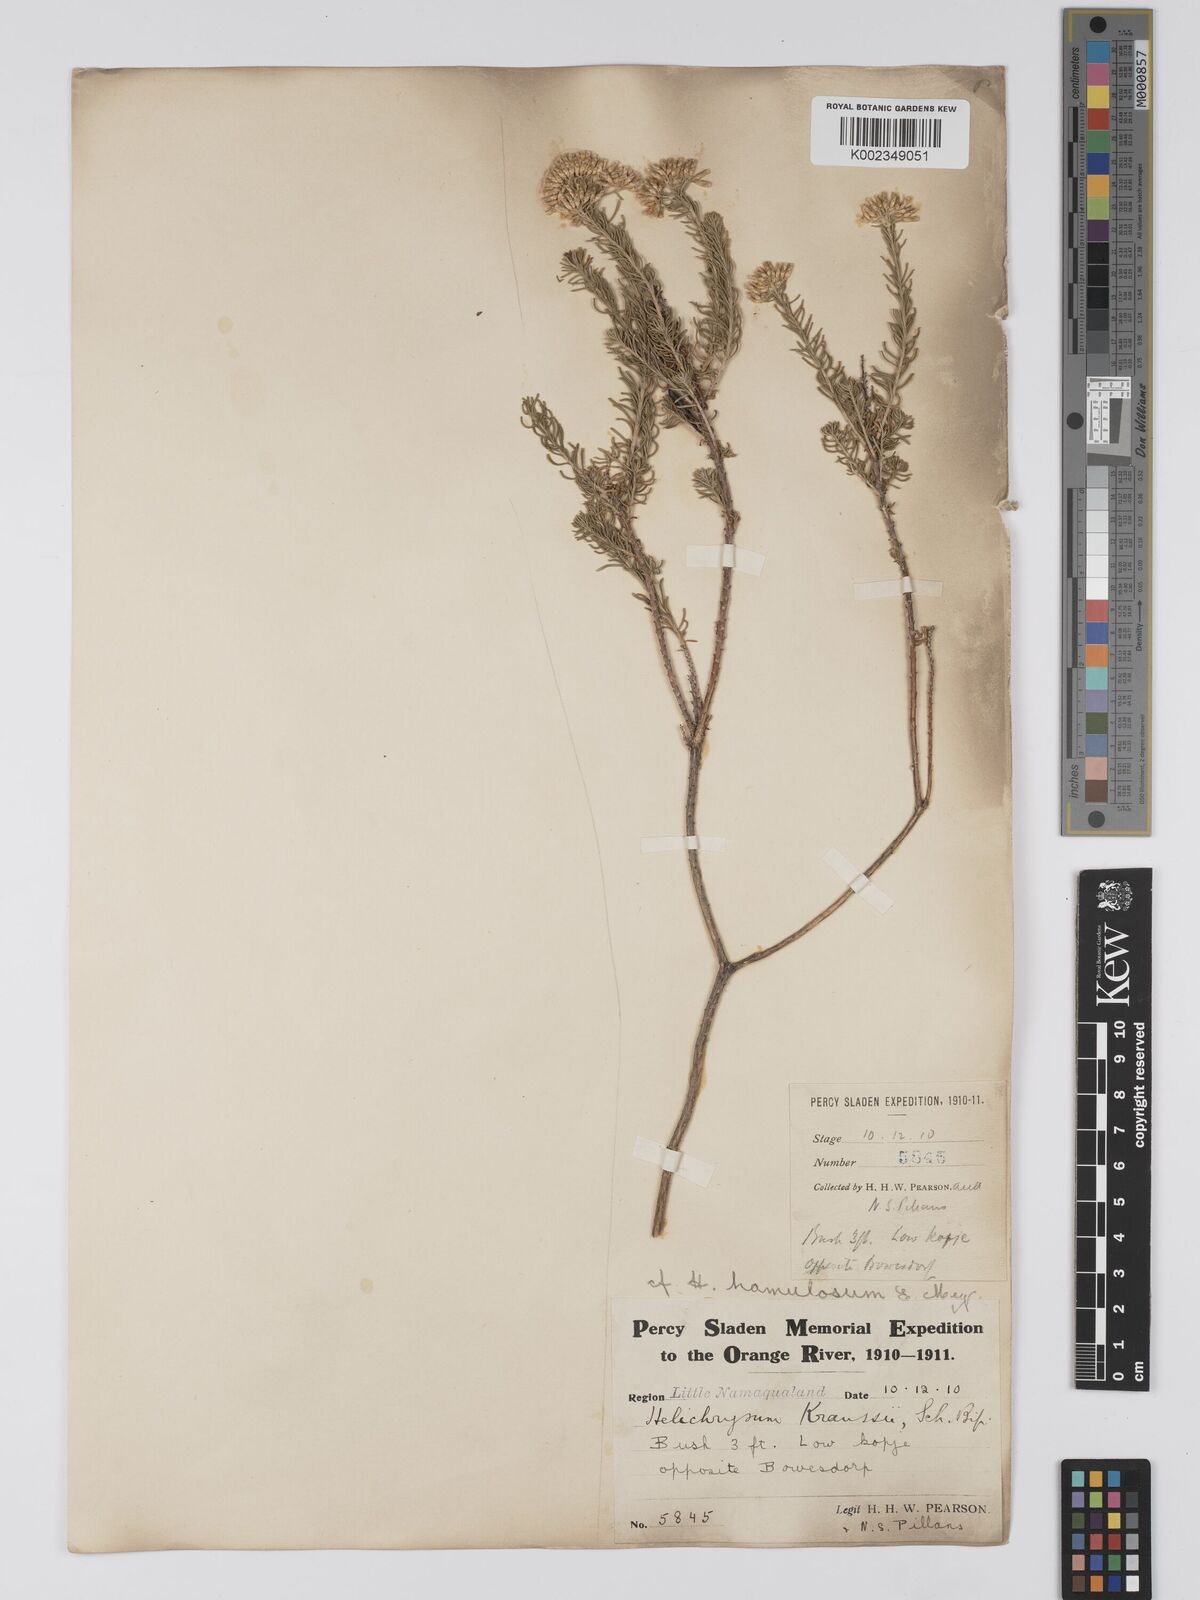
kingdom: Plantae
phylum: Tracheophyta
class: Magnoliopsida
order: Asterales
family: Asteraceae
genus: Helichrysum
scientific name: Helichrysum hamulosum
